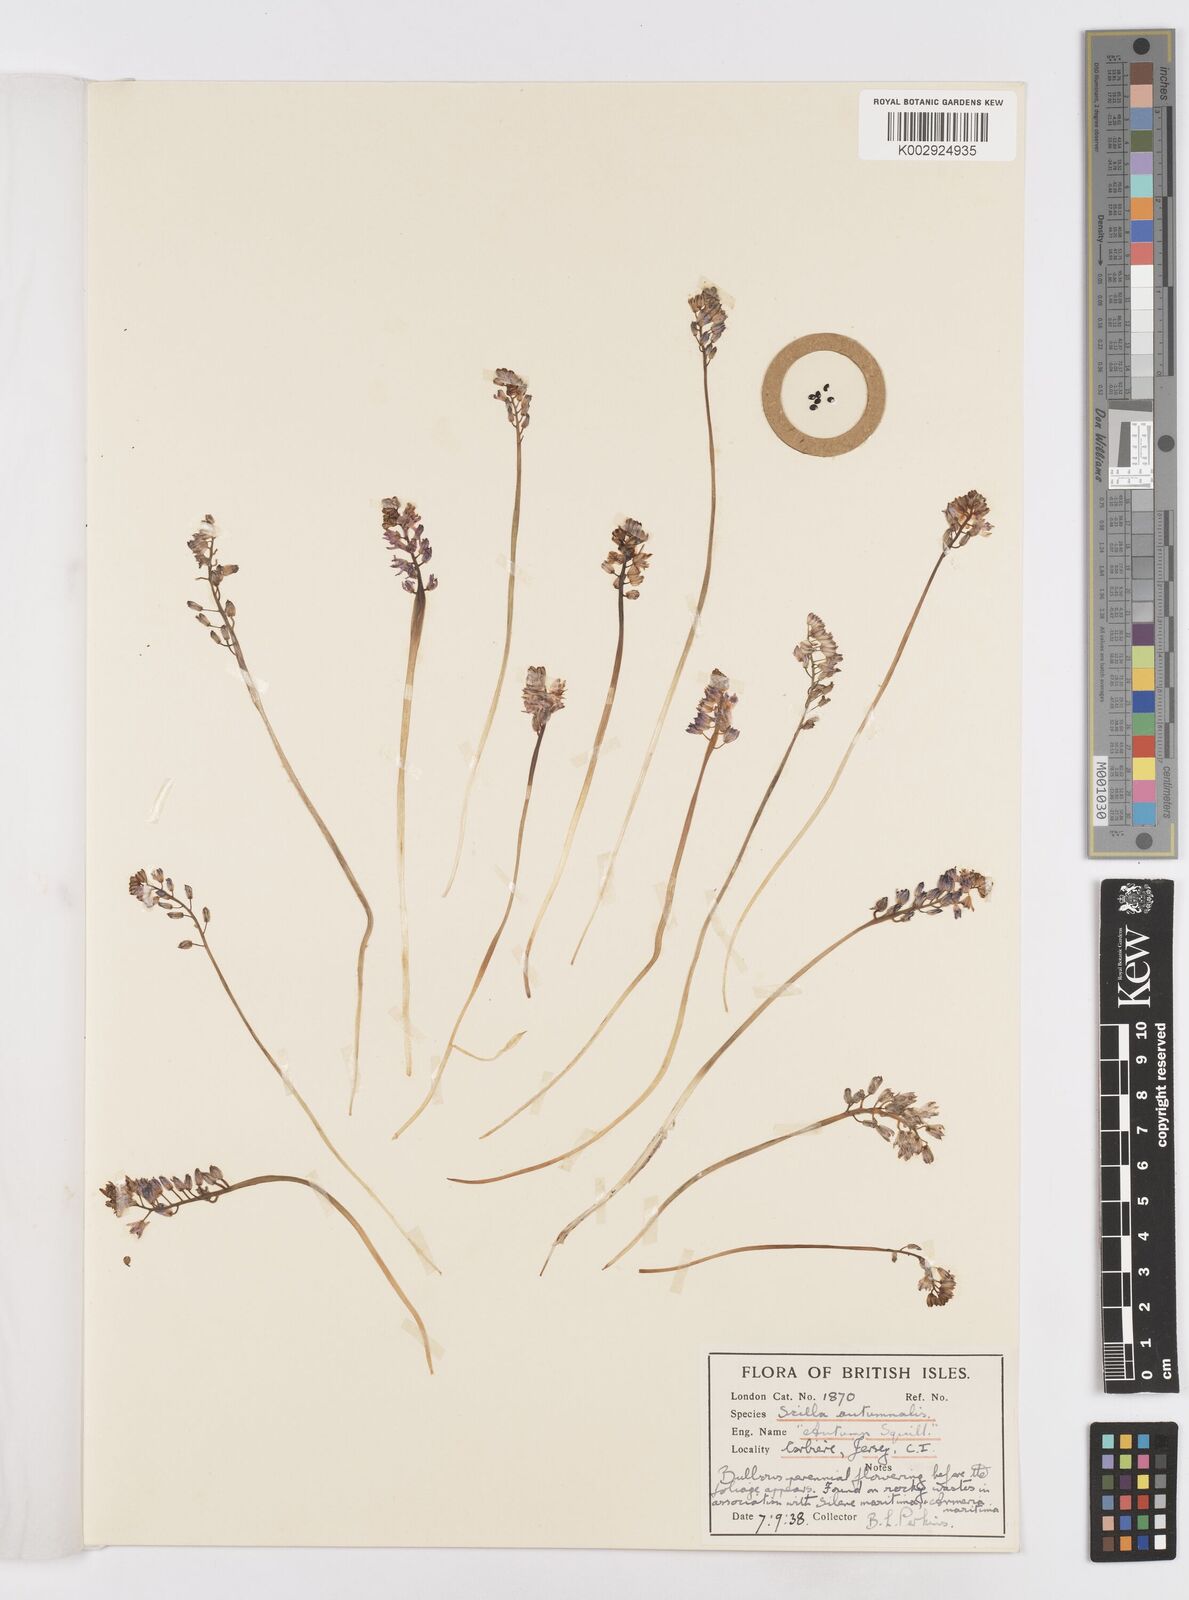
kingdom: Plantae
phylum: Tracheophyta
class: Liliopsida
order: Asparagales
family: Asparagaceae
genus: Scilla
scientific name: Scilla
